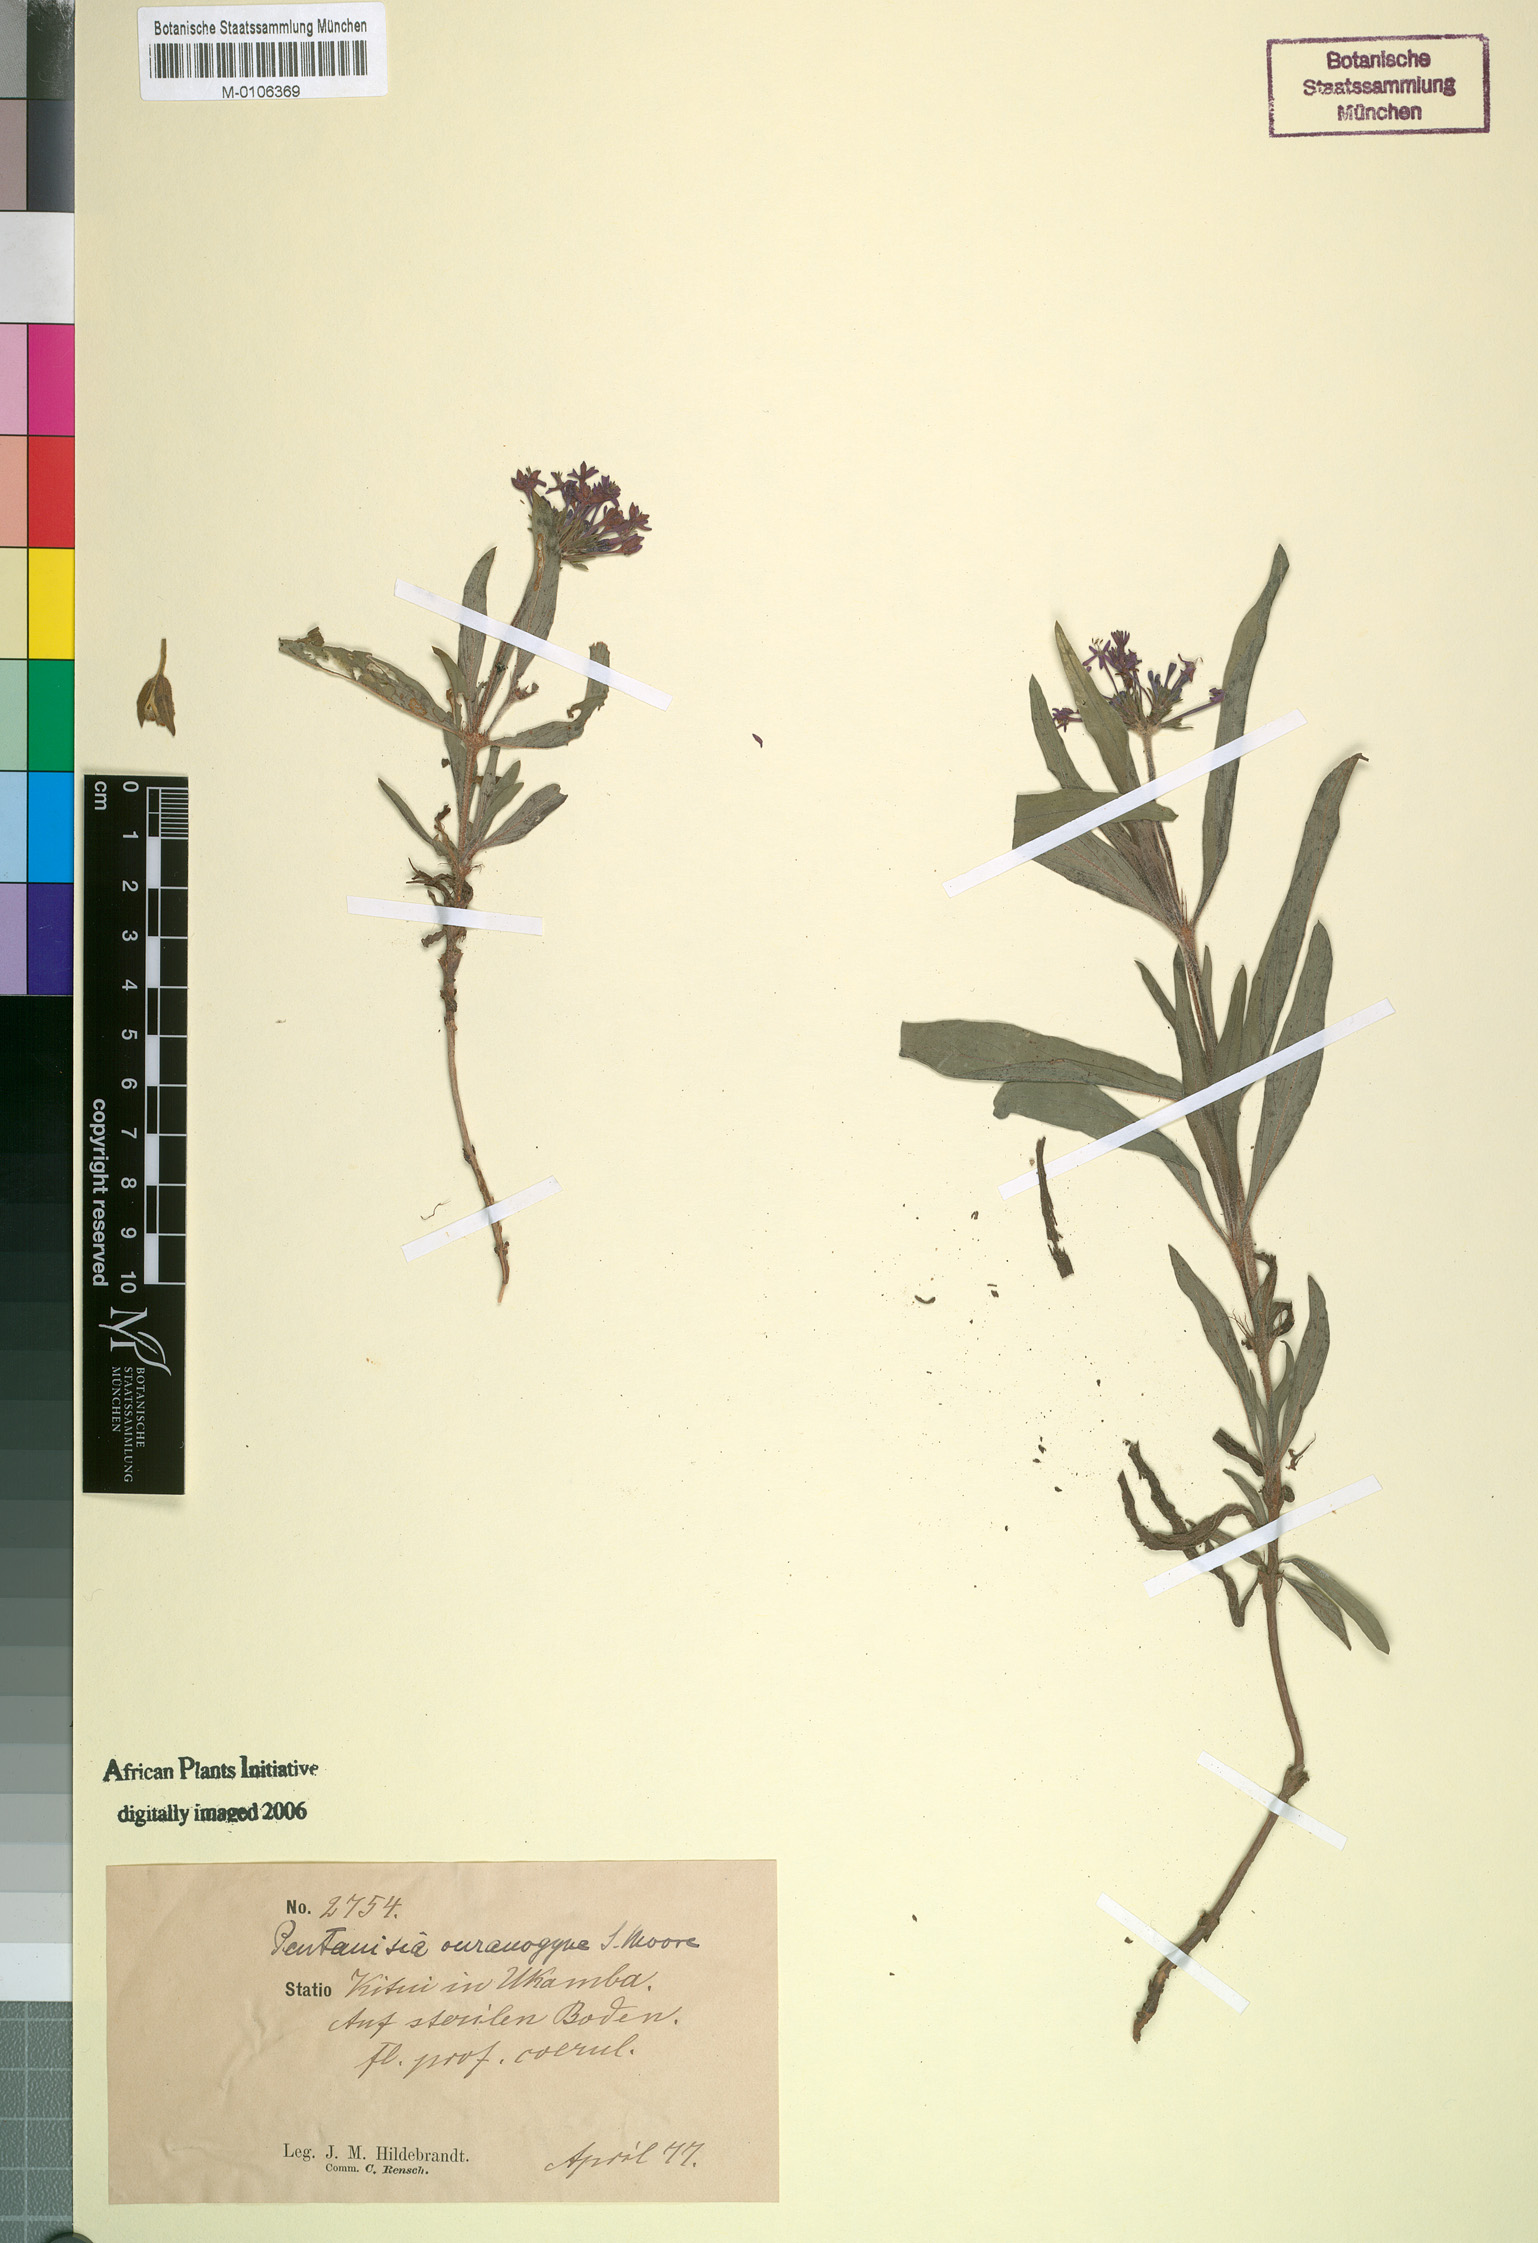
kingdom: Plantae
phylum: Tracheophyta
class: Magnoliopsida
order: Gentianales
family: Rubiaceae
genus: Pentanisia
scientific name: Pentanisia ouranogyne
